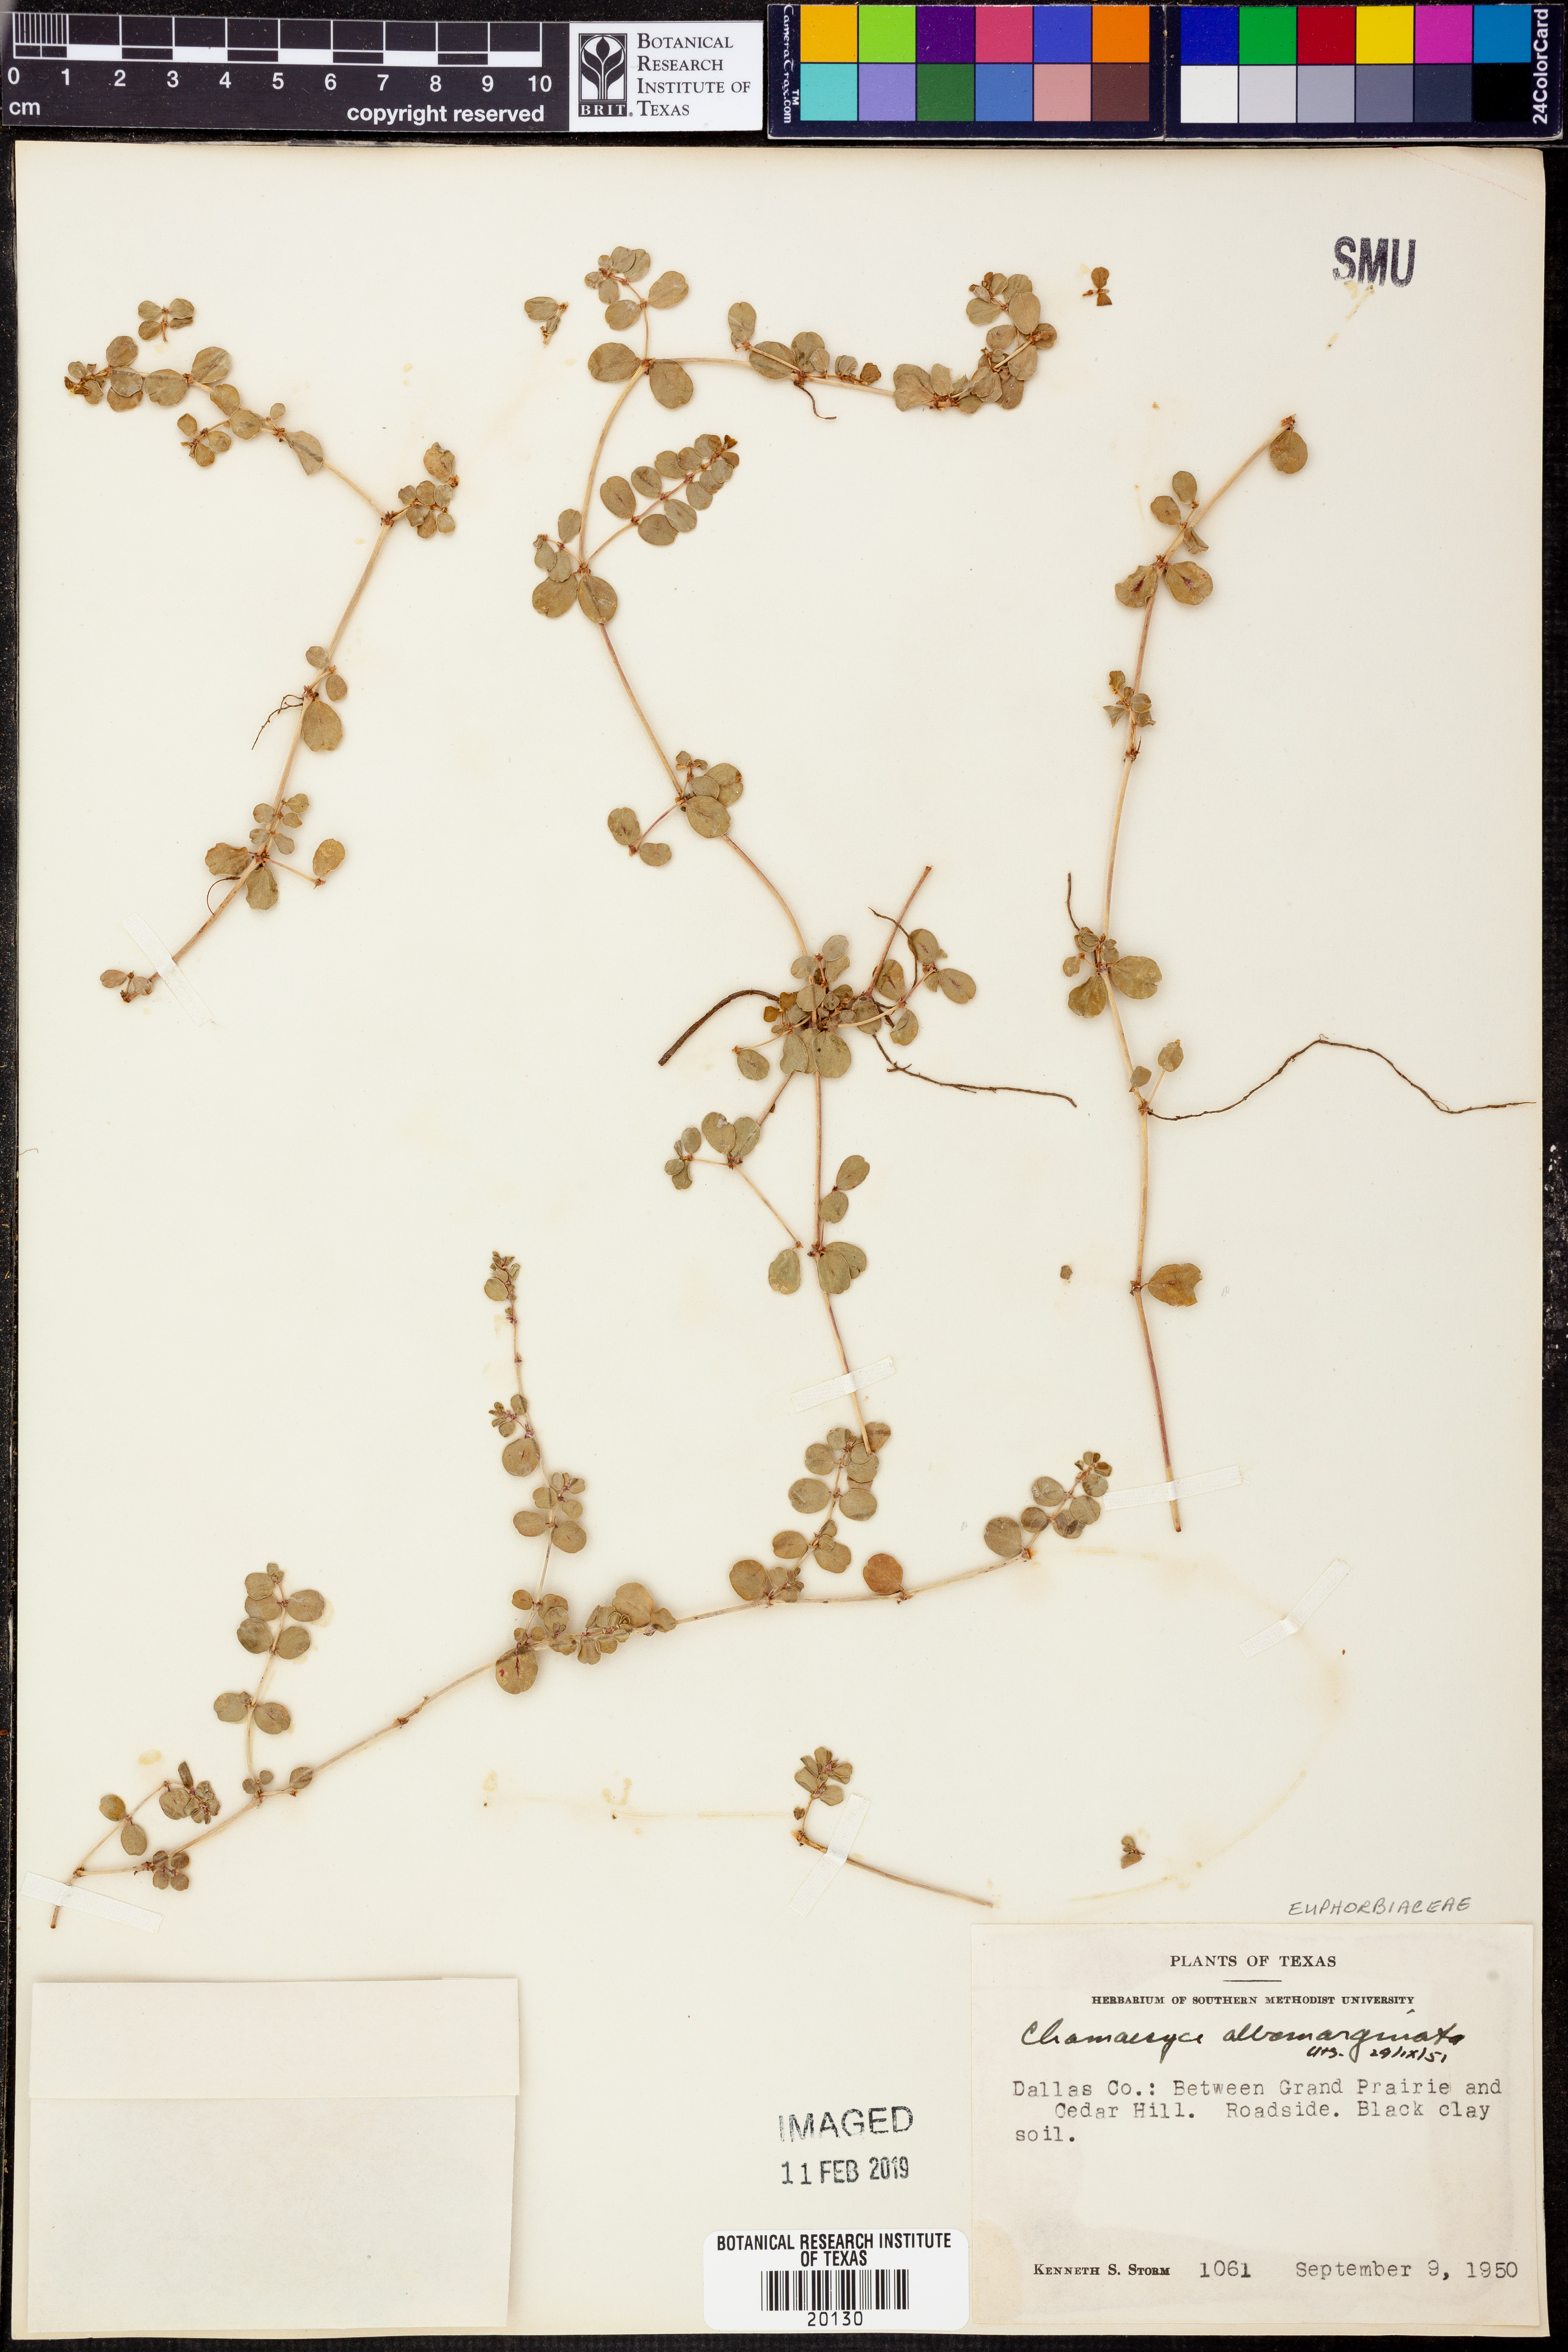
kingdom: Plantae
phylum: Tracheophyta
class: Magnoliopsida
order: Malpighiales
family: Euphorbiaceae
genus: Euphorbia
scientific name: Euphorbia albomarginata
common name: Whitemargin sandmat
